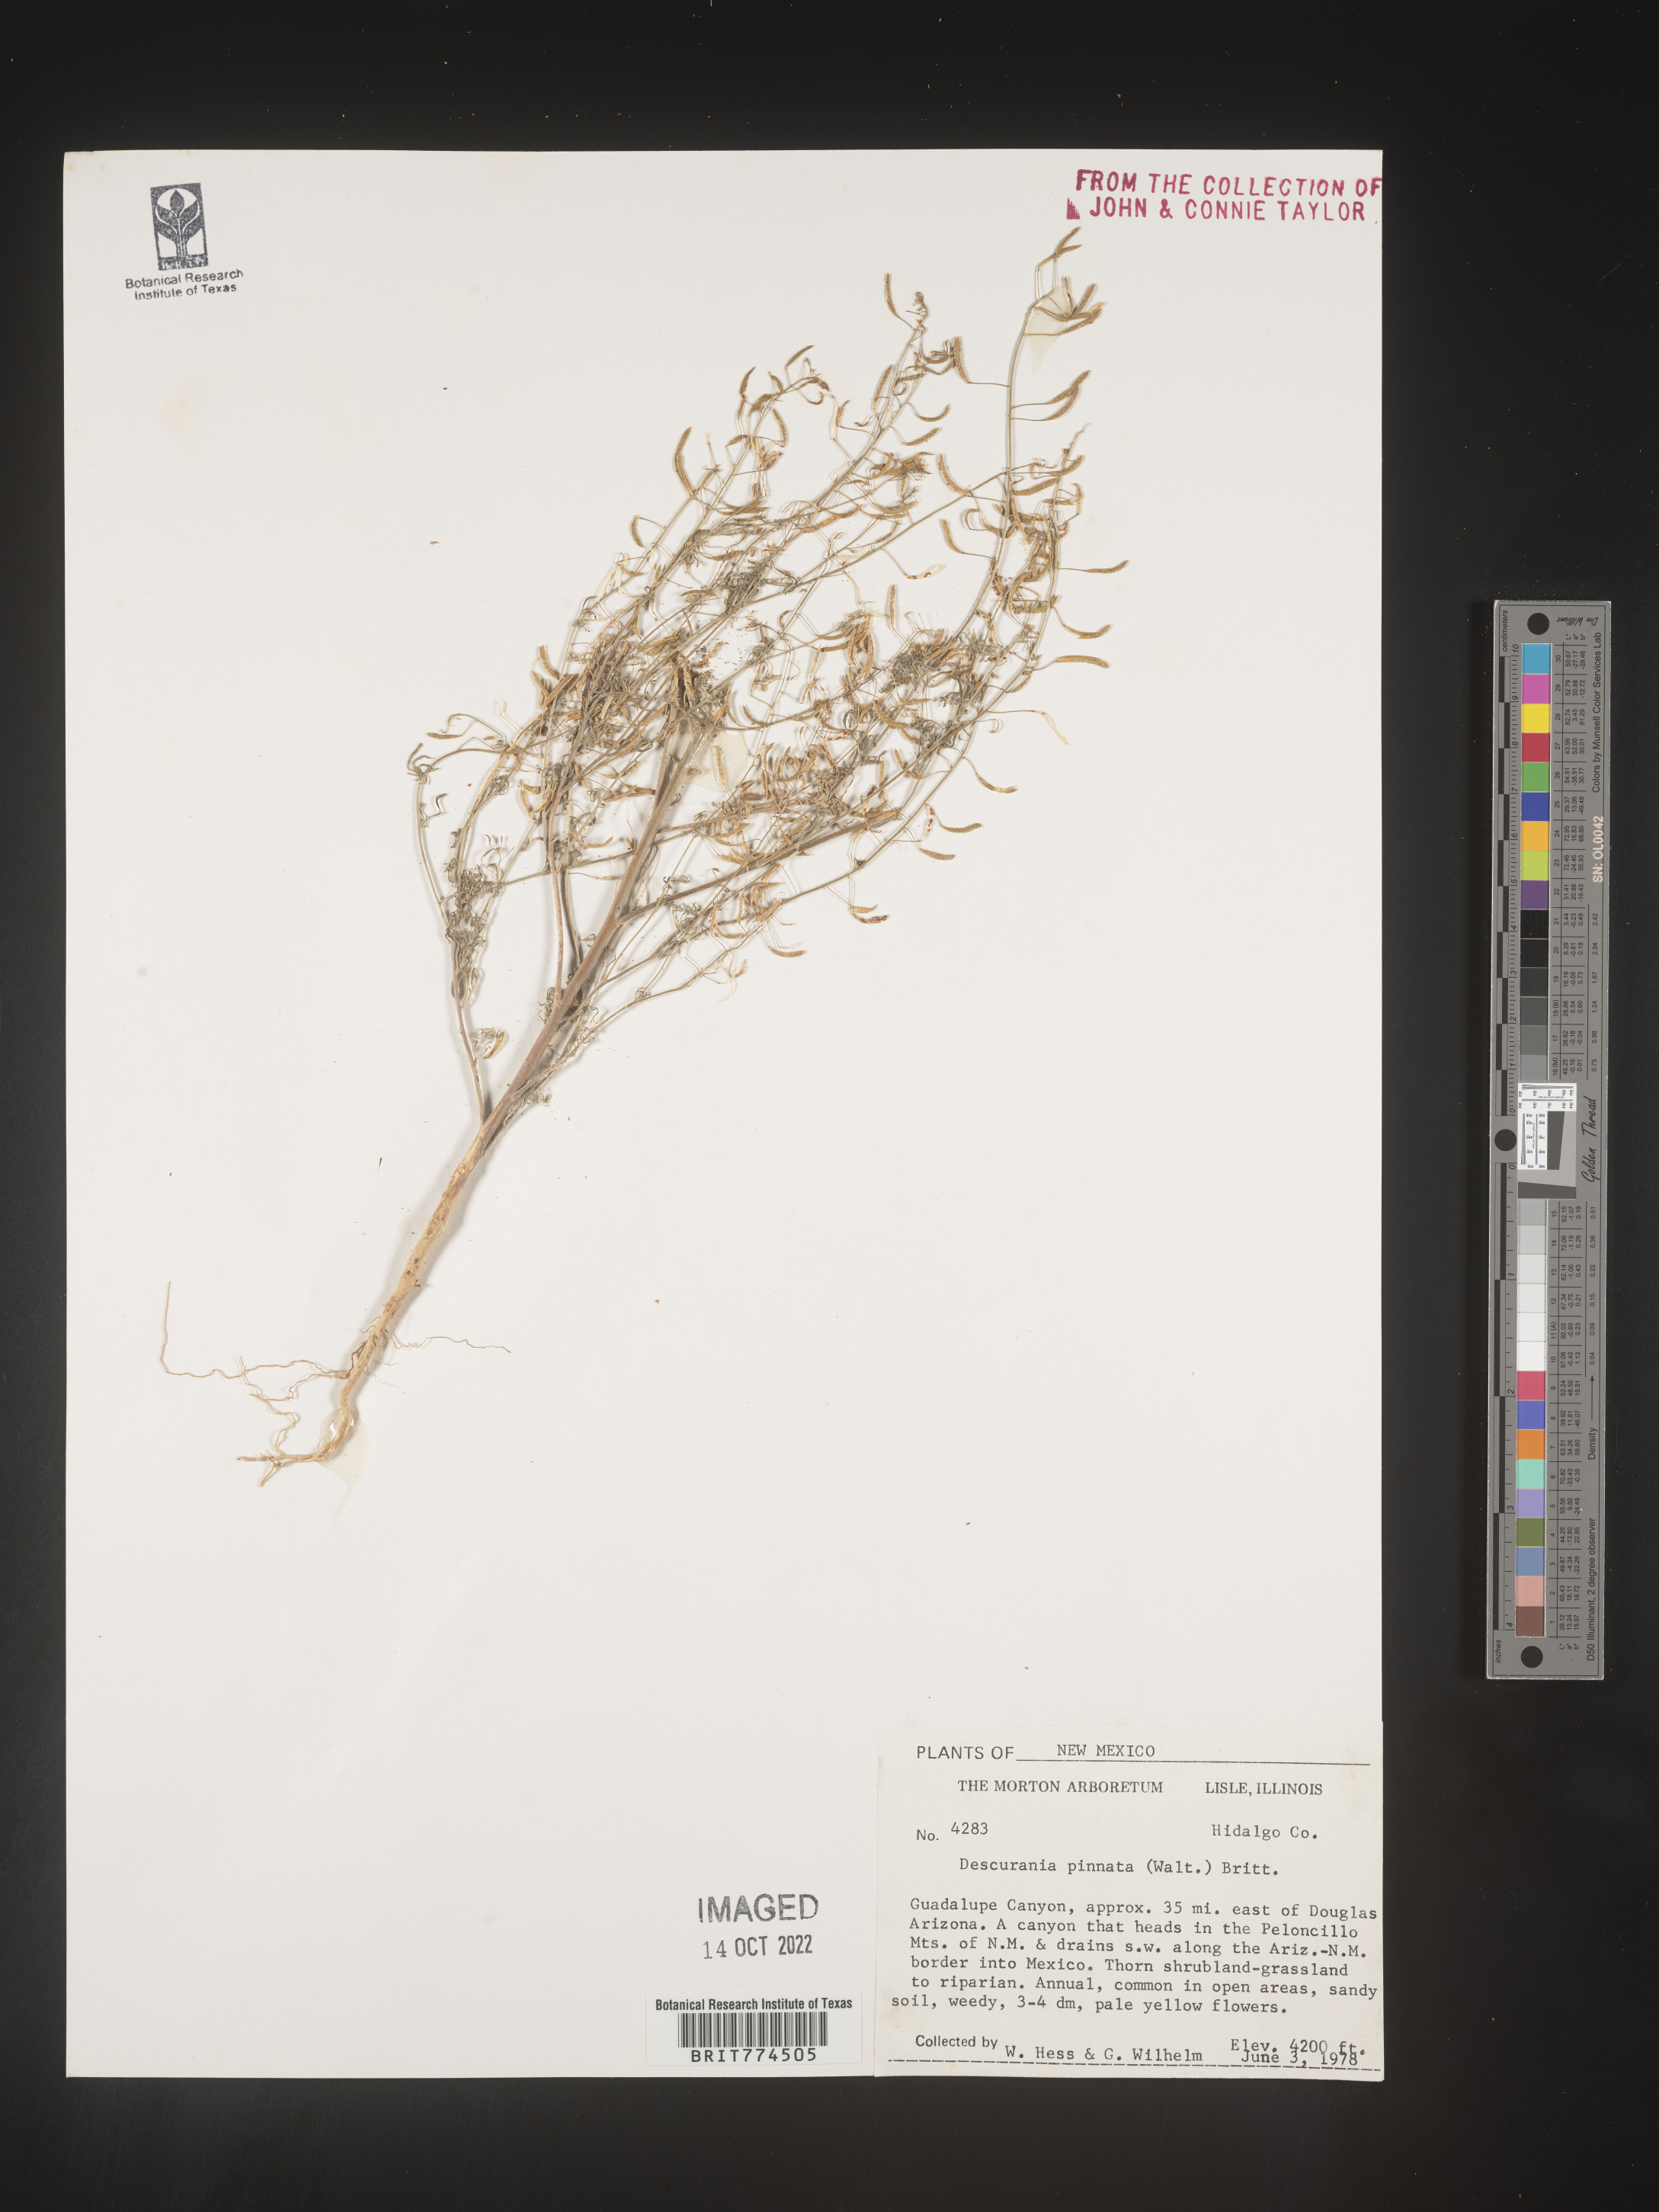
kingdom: Plantae
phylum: Tracheophyta
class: Magnoliopsida
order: Brassicales
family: Brassicaceae
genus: Descurainia
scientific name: Descurainia pinnata
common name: Western tansy mustard
